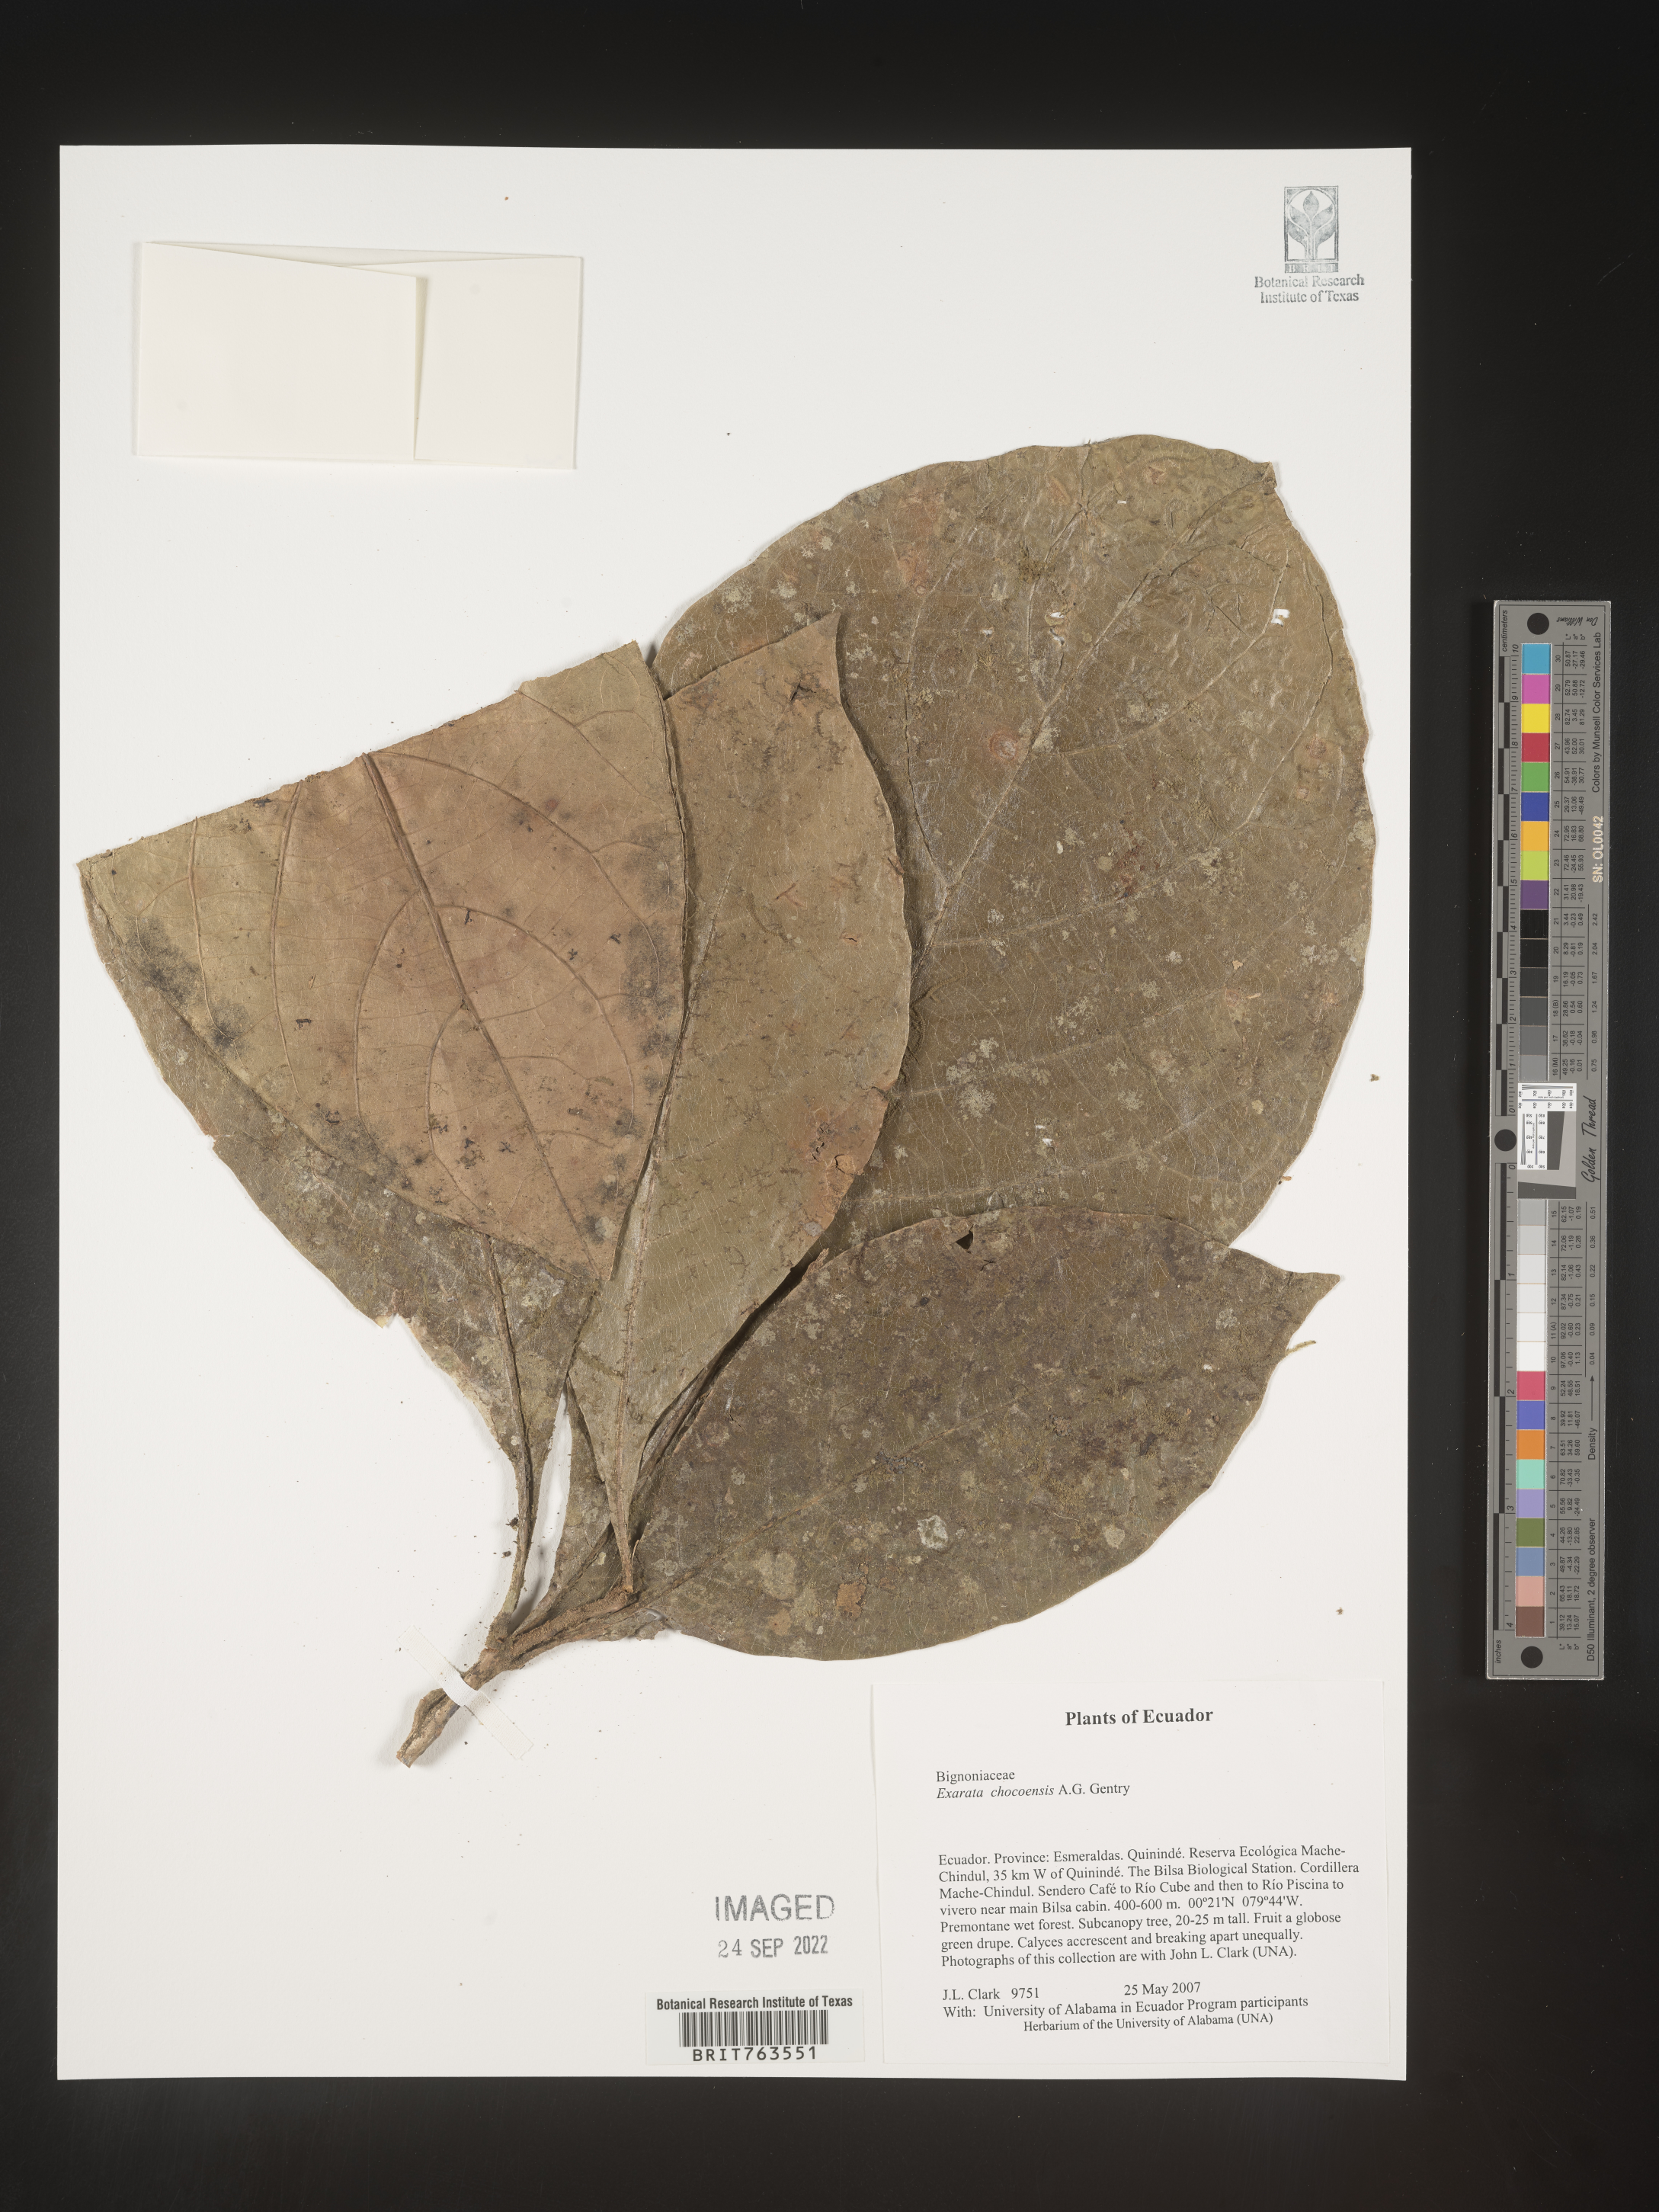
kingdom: Plantae
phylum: Tracheophyta
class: Magnoliopsida
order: Lamiales
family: Schlegeliaceae
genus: Exarata
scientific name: Exarata chocoensis
